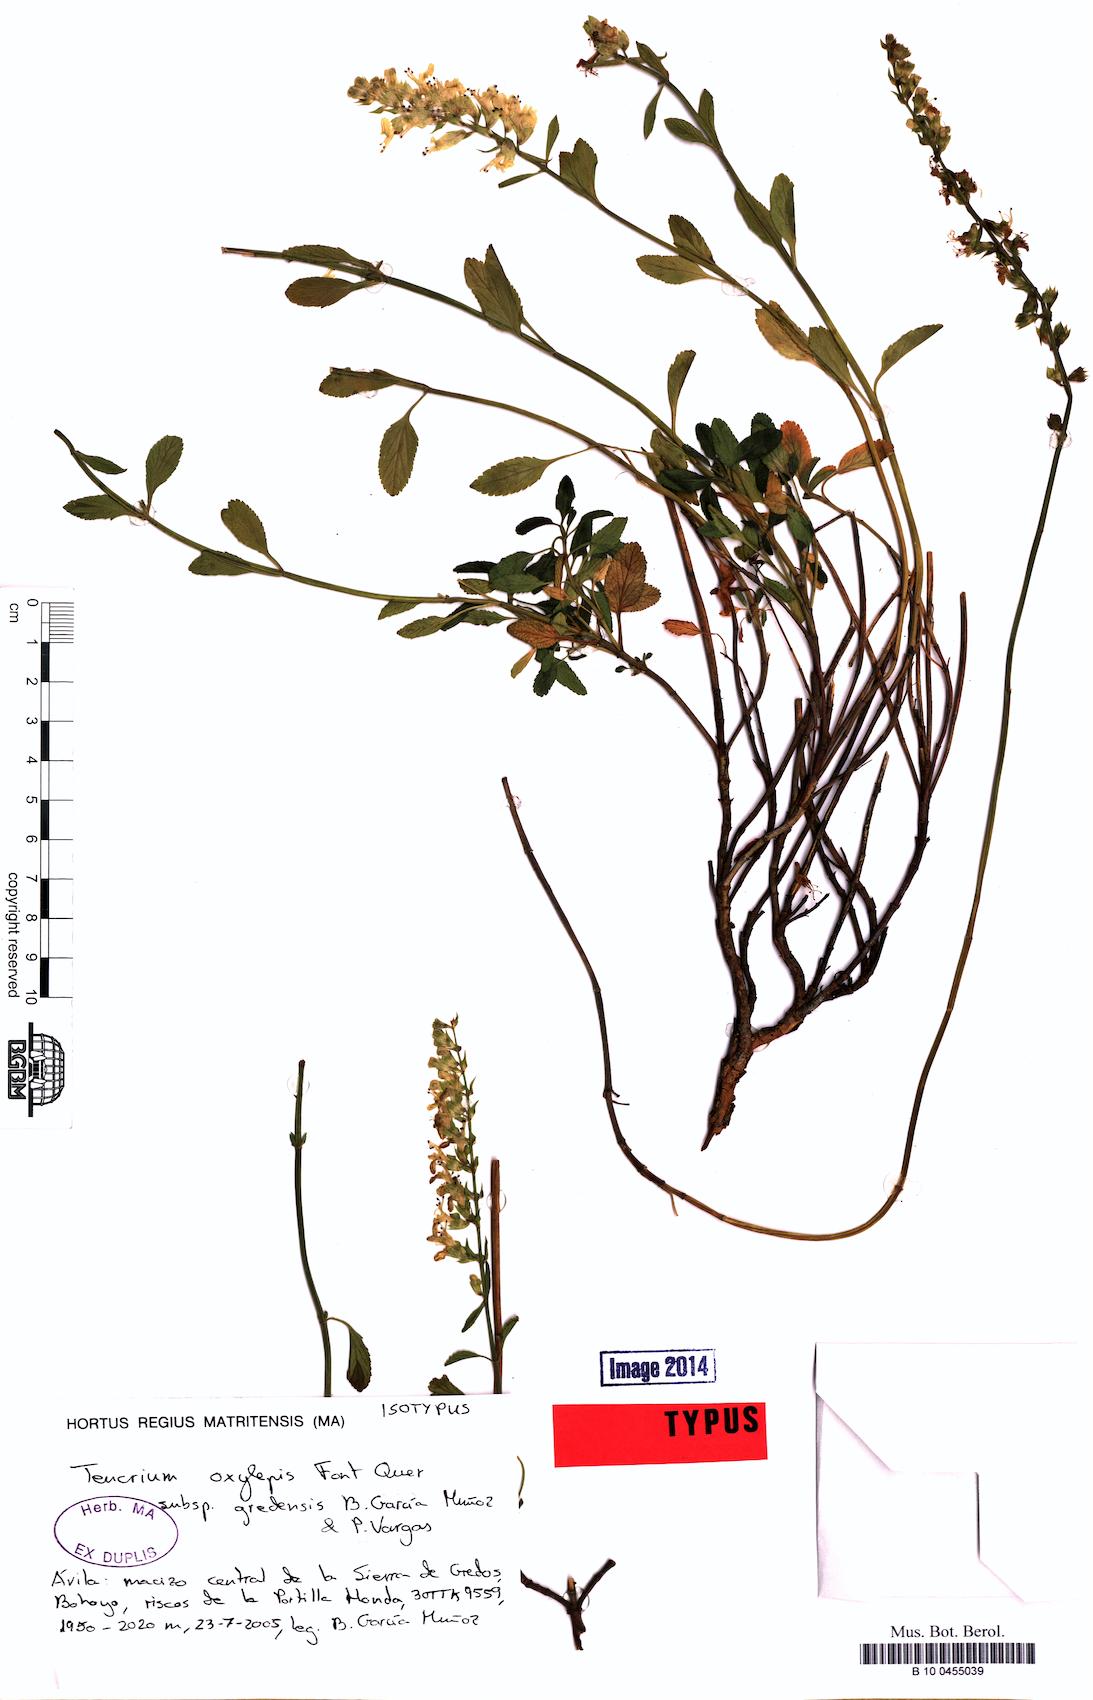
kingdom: Plantae
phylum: Tracheophyta
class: Magnoliopsida
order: Lamiales
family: Lamiaceae
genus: Teucrium
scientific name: Teucrium oxylepis
